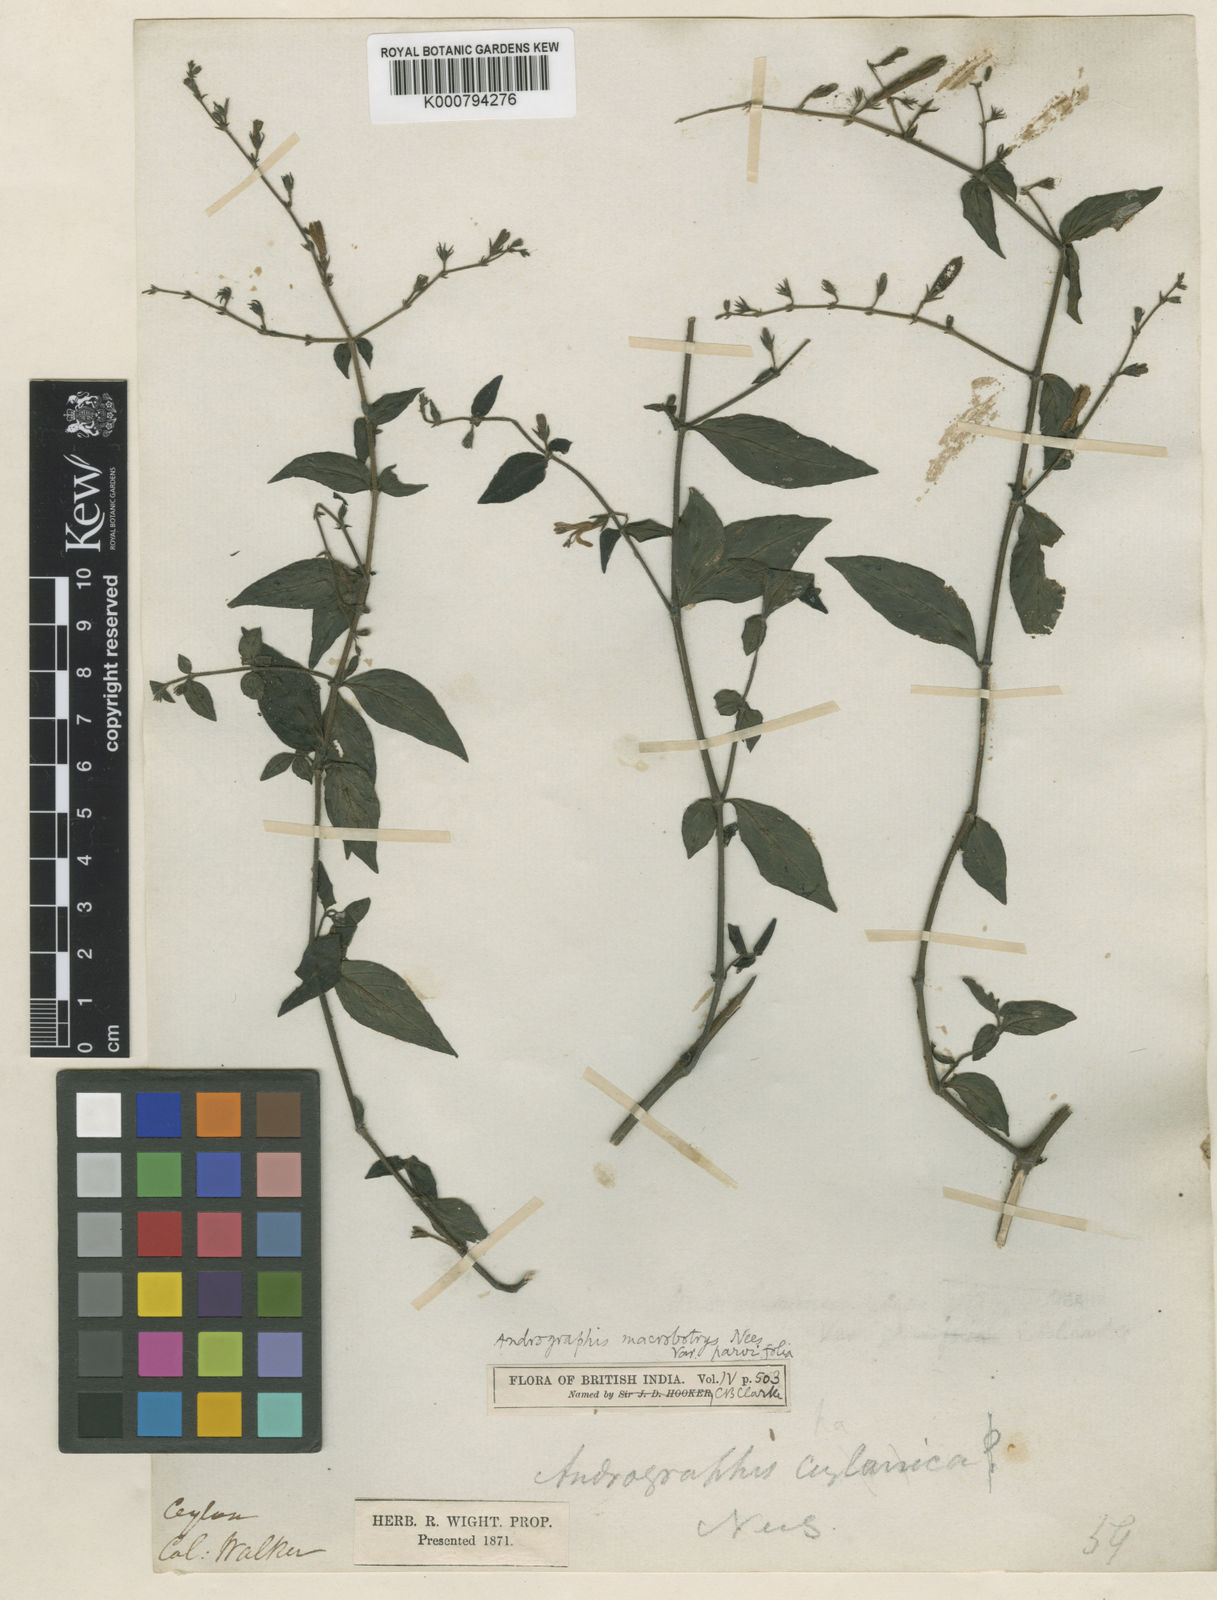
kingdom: Plantae
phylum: Tracheophyta
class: Magnoliopsida
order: Lamiales
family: Acanthaceae
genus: Andrographis
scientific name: Andrographis macrobotrys
